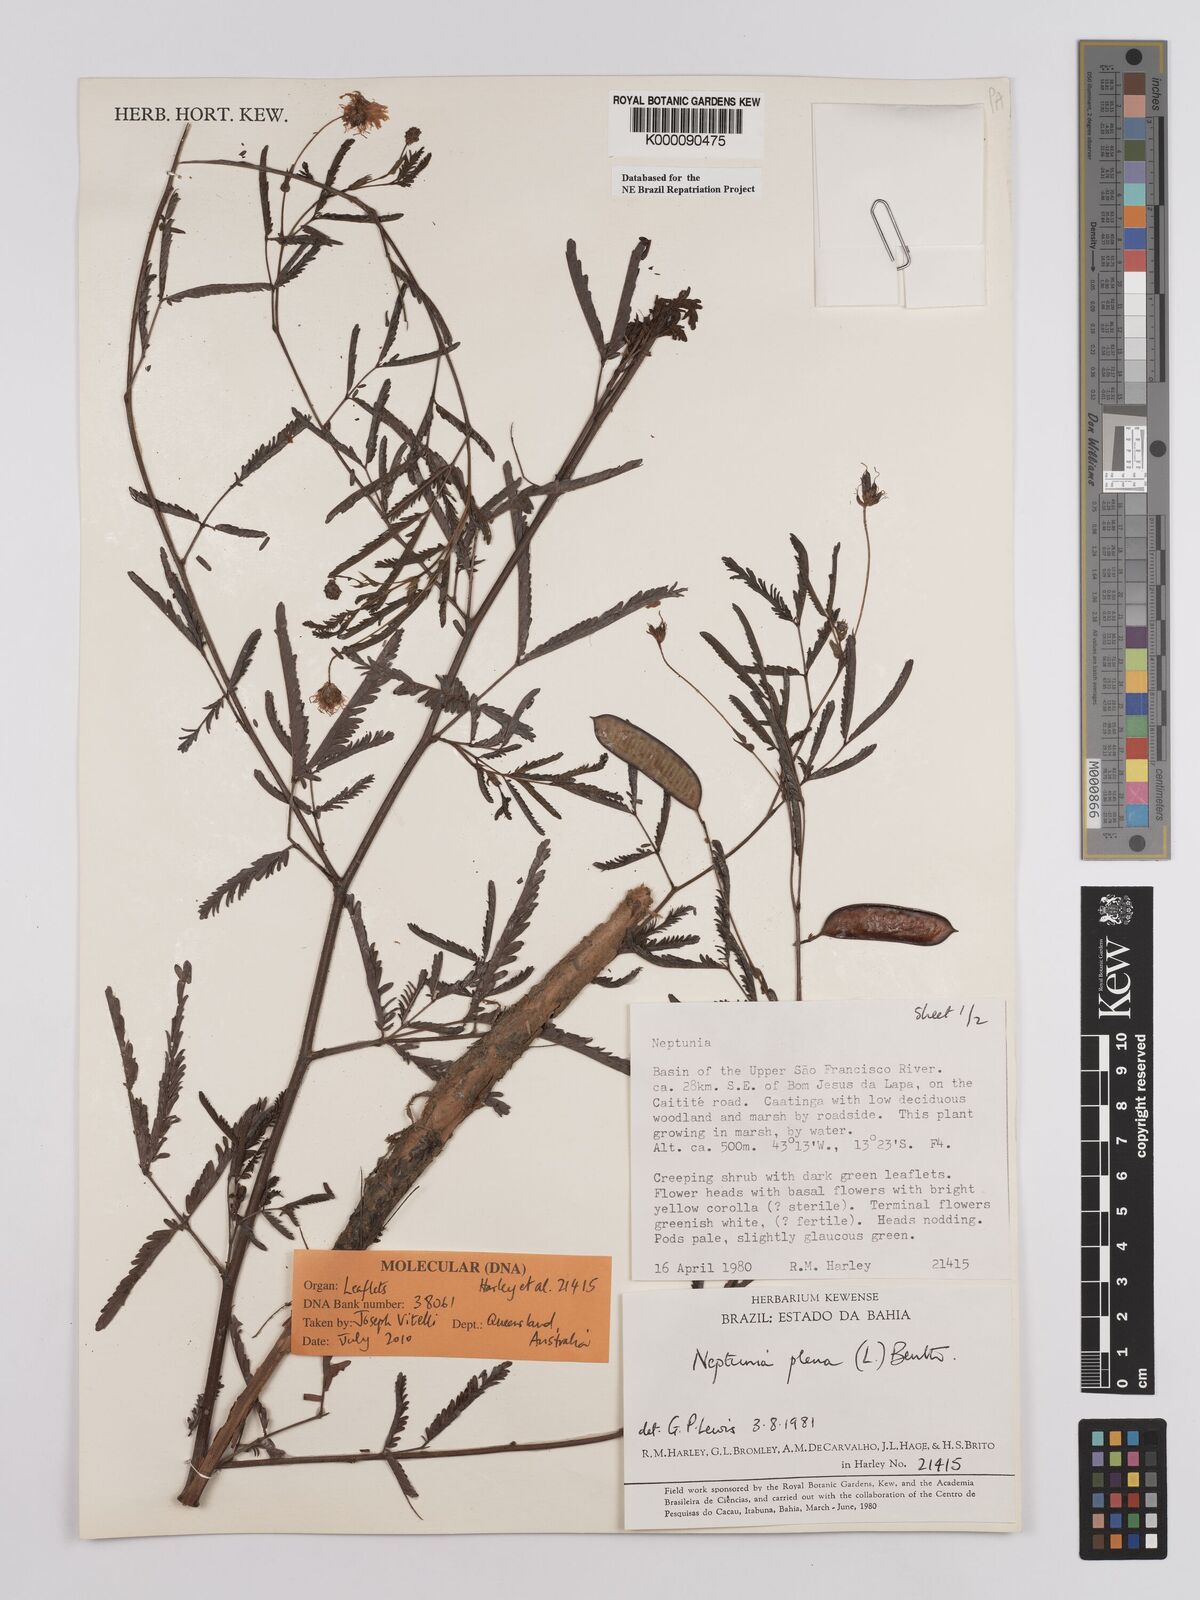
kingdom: Plantae
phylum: Tracheophyta
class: Magnoliopsida
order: Fabales
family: Fabaceae
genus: Neptunia
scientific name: Neptunia plena
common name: Dead and awake
